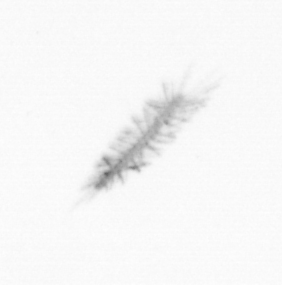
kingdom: Chromista
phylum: Ochrophyta
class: Bacillariophyceae
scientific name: Bacillariophyceae
